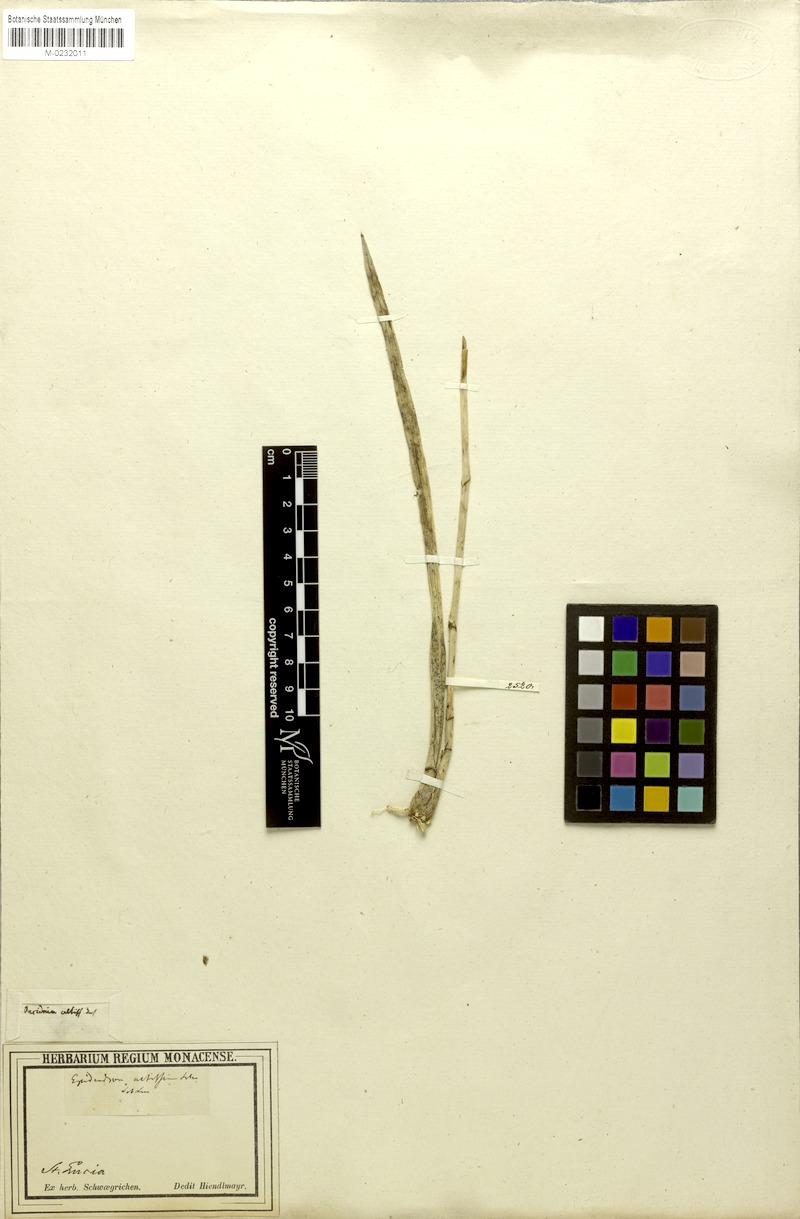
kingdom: Plantae
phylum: Tracheophyta
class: Liliopsida
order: Asparagales
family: Orchidaceae
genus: Oncidium
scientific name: Oncidium altissimum
